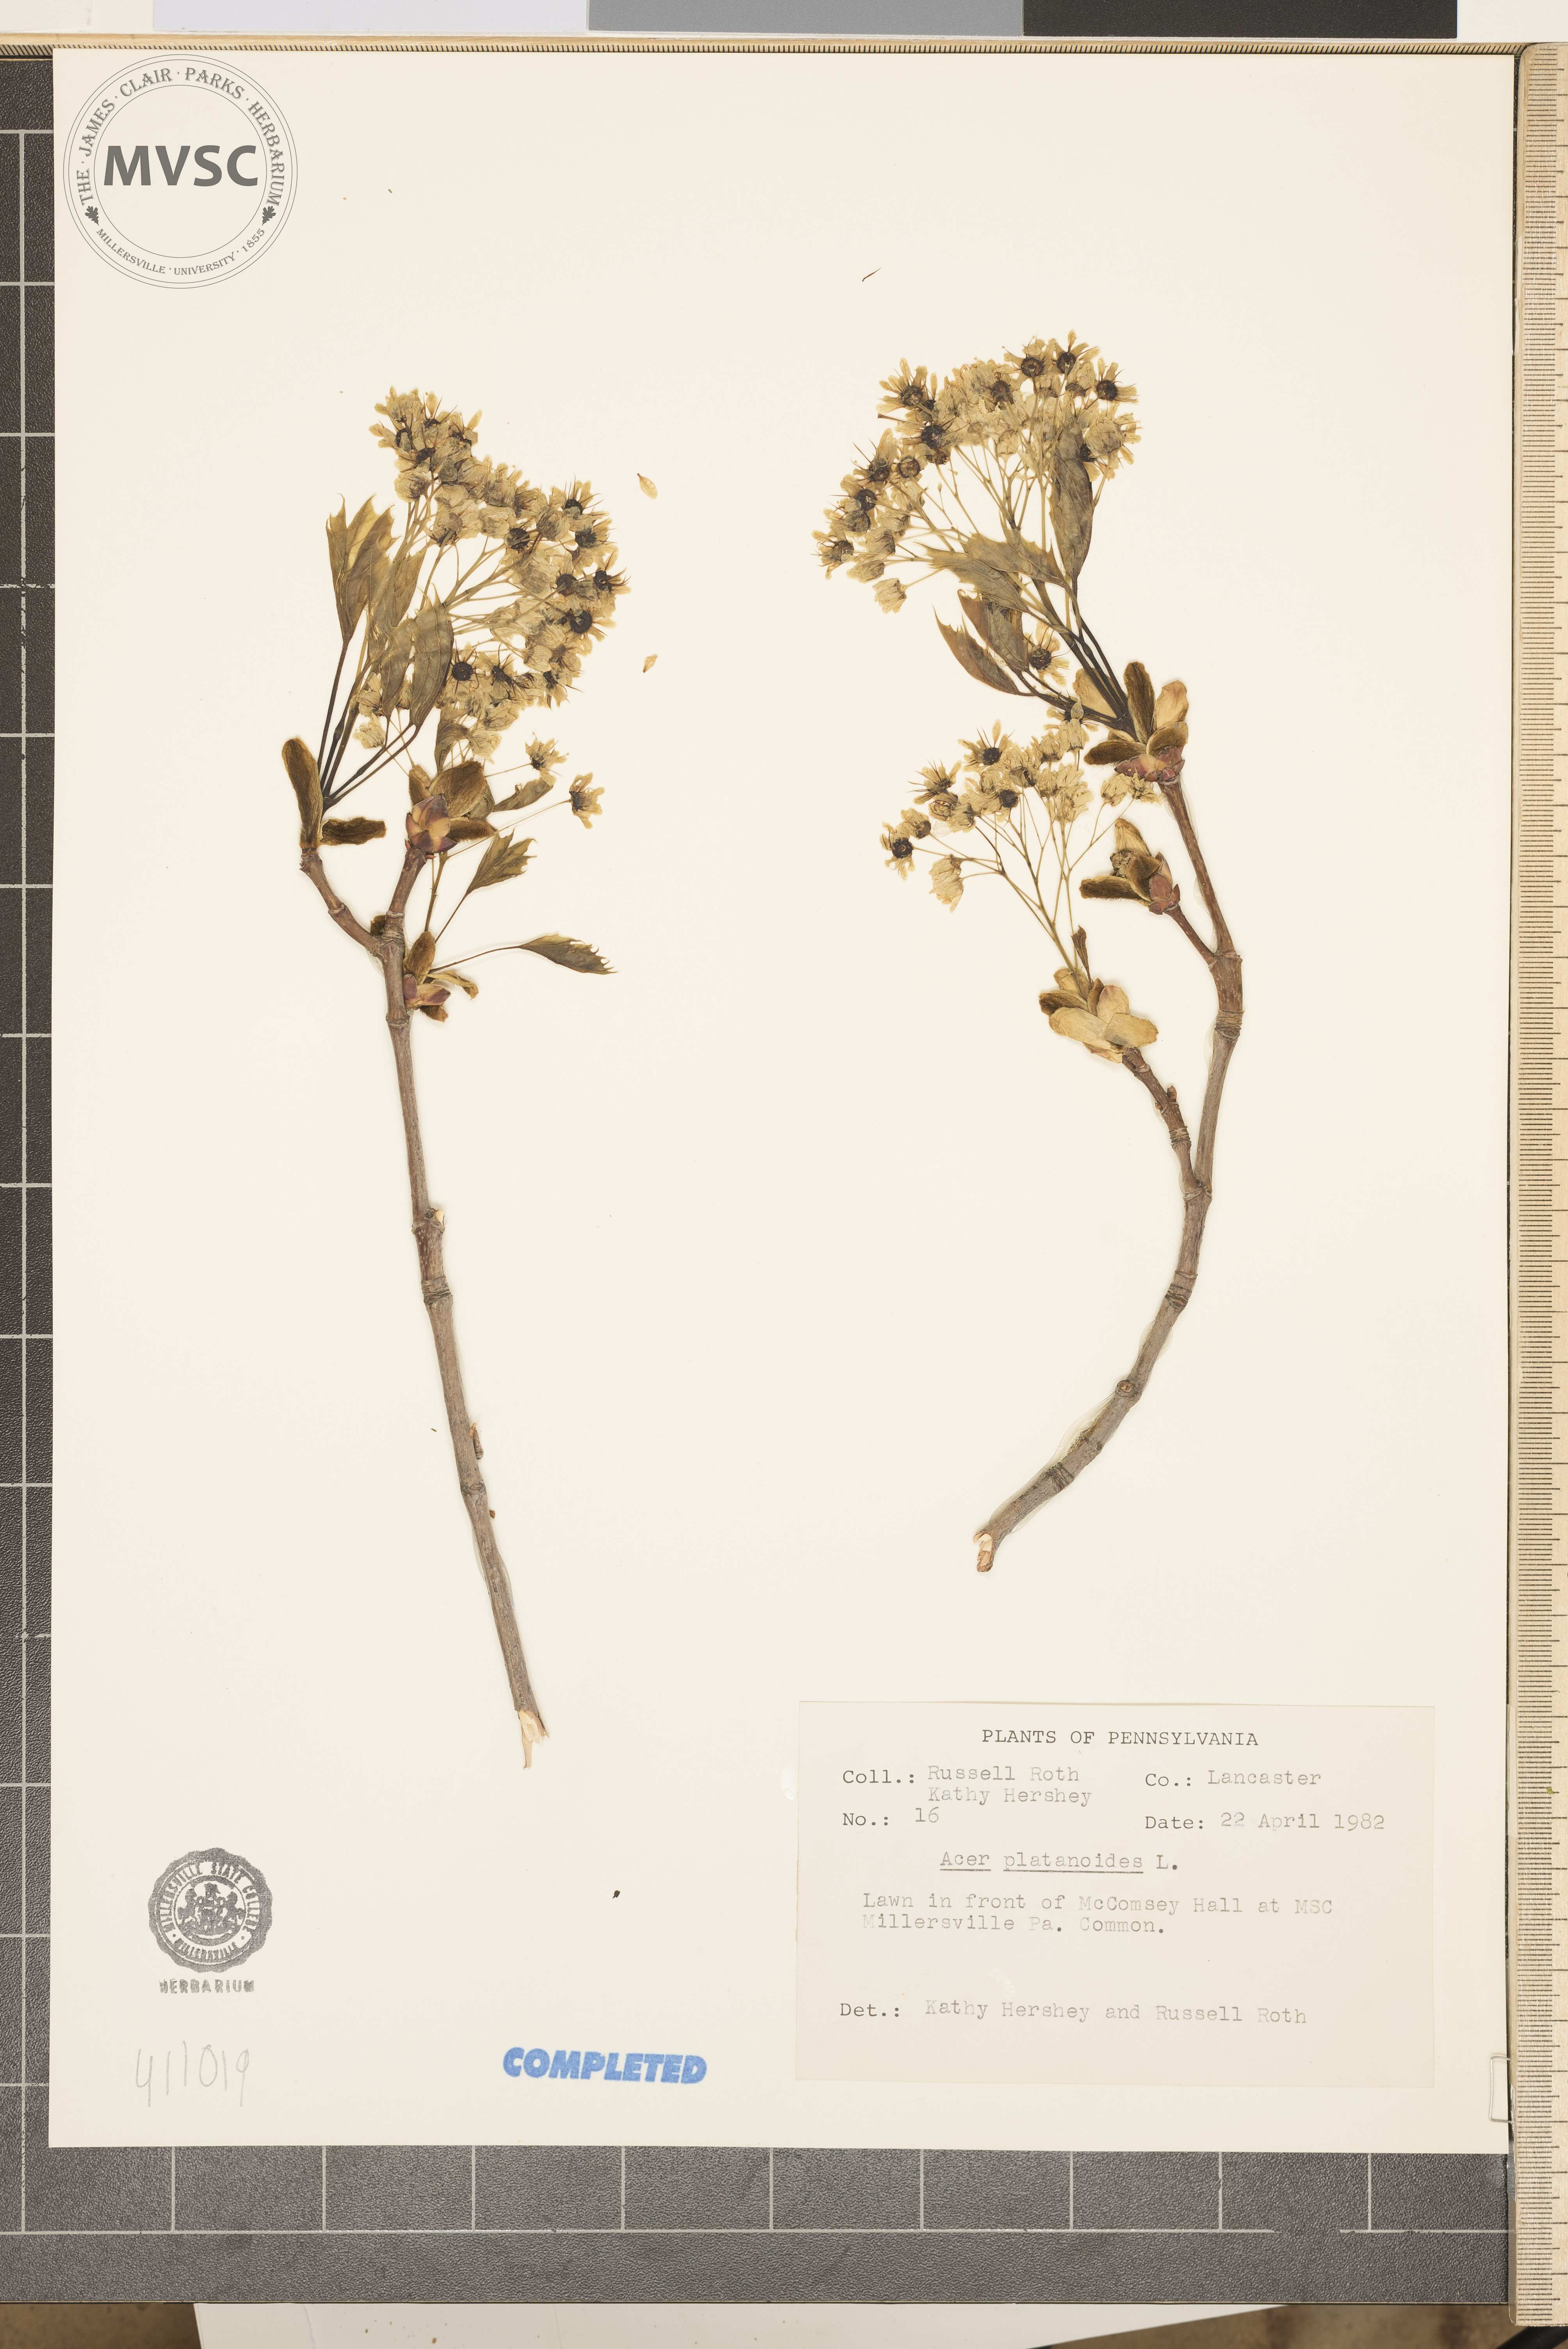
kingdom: Plantae
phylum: Tracheophyta
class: Magnoliopsida
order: Sapindales
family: Sapindaceae
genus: Acer
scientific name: Acer platanoides
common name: Norway maple
